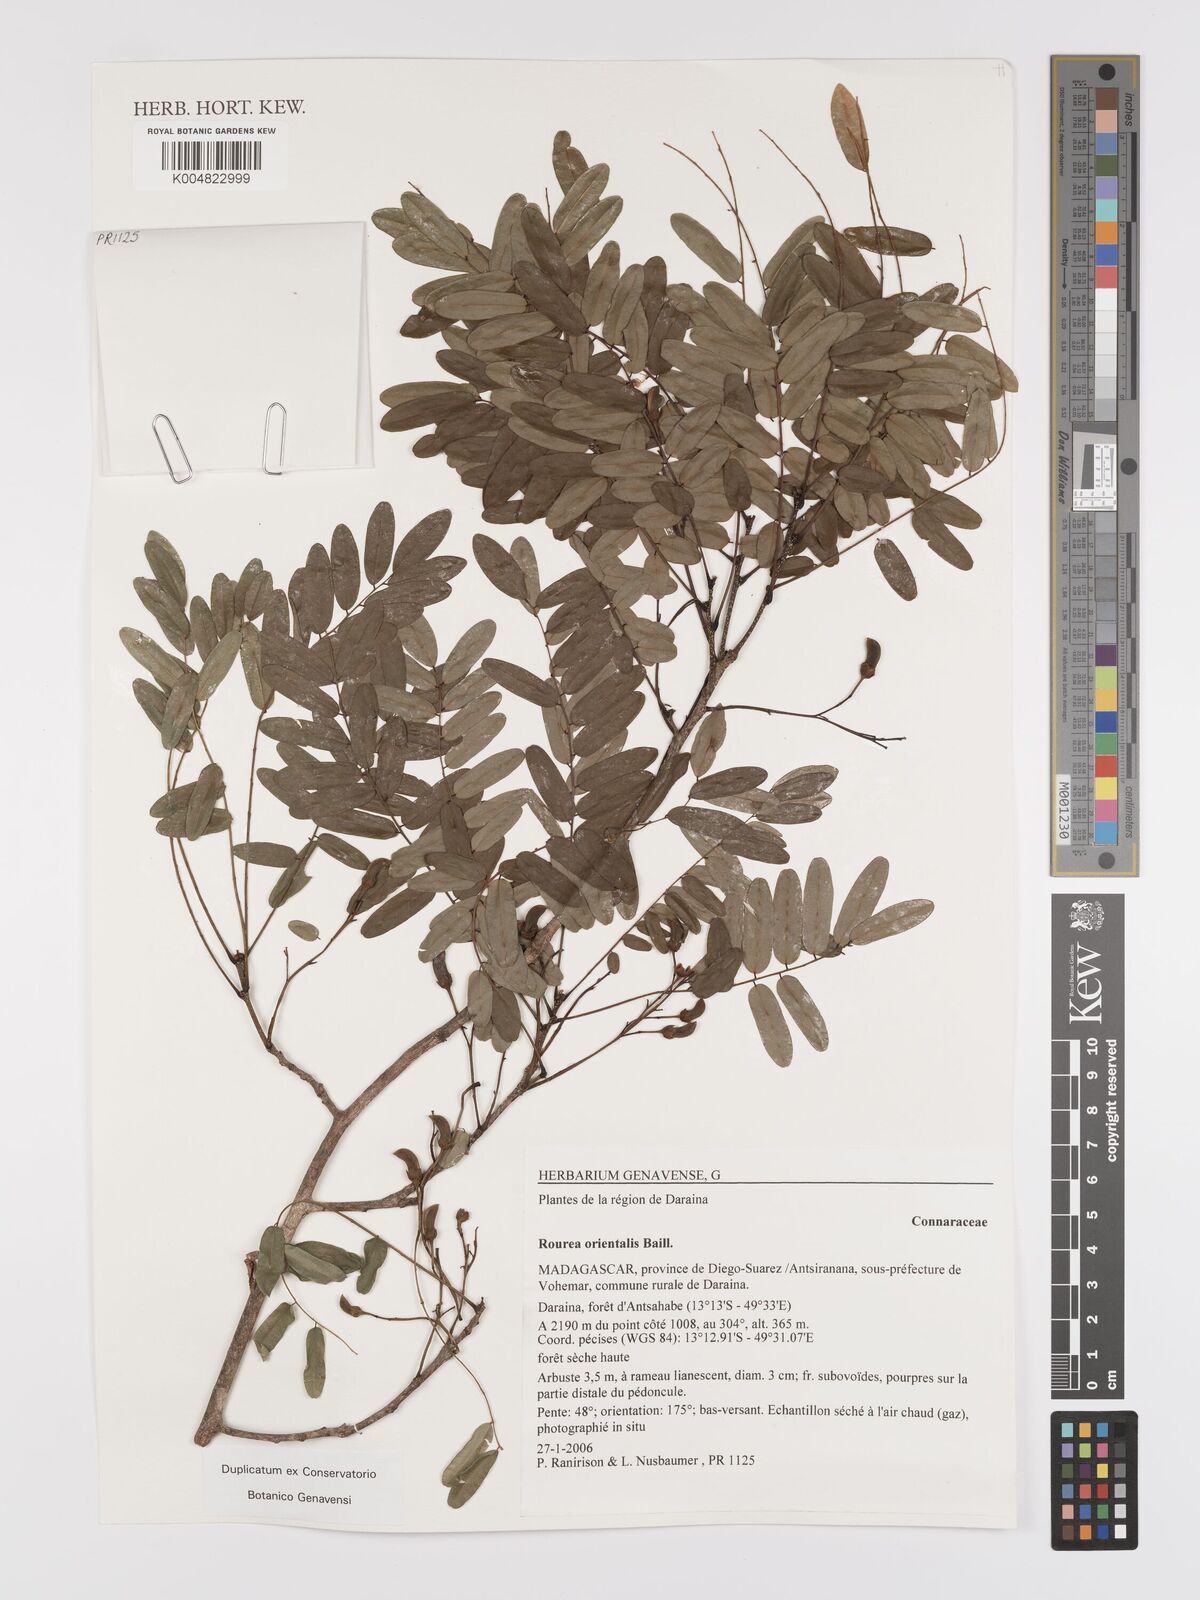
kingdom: Plantae
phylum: Tracheophyta
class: Magnoliopsida
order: Oxalidales
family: Connaraceae
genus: Rourea
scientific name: Rourea orientalis
